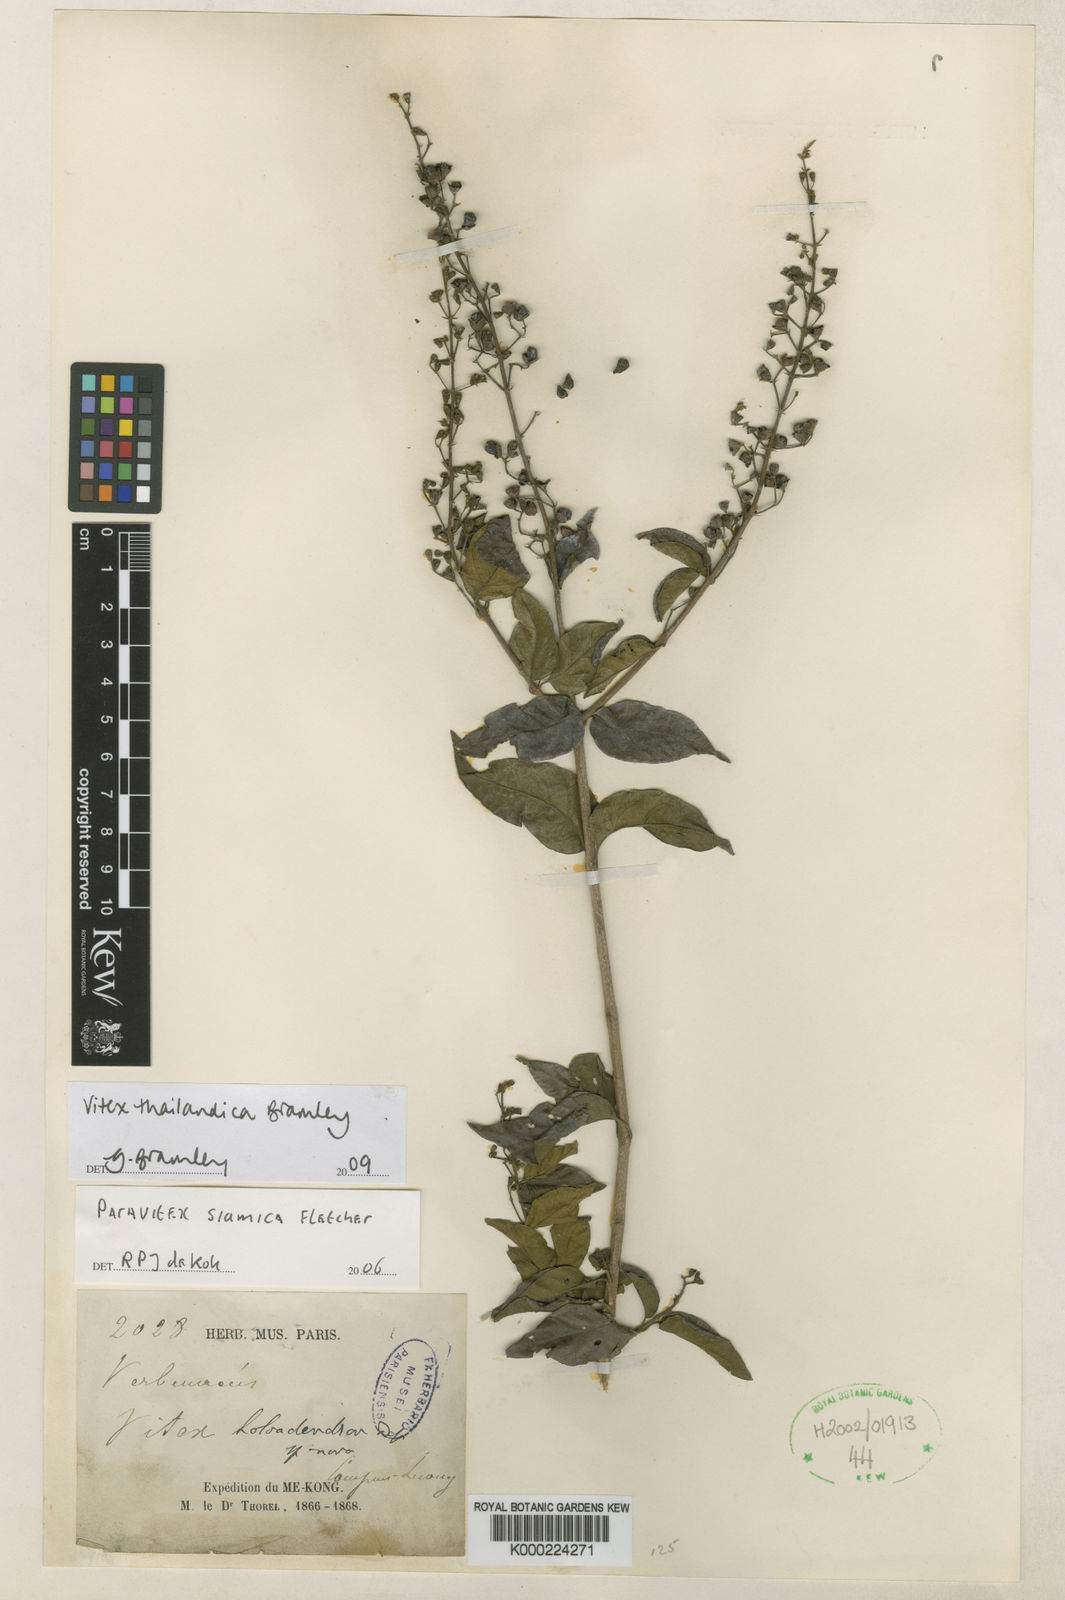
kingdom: Plantae
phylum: Tracheophyta
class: Magnoliopsida
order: Lamiales
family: Lamiaceae
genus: Vitex
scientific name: Vitex thailandica
